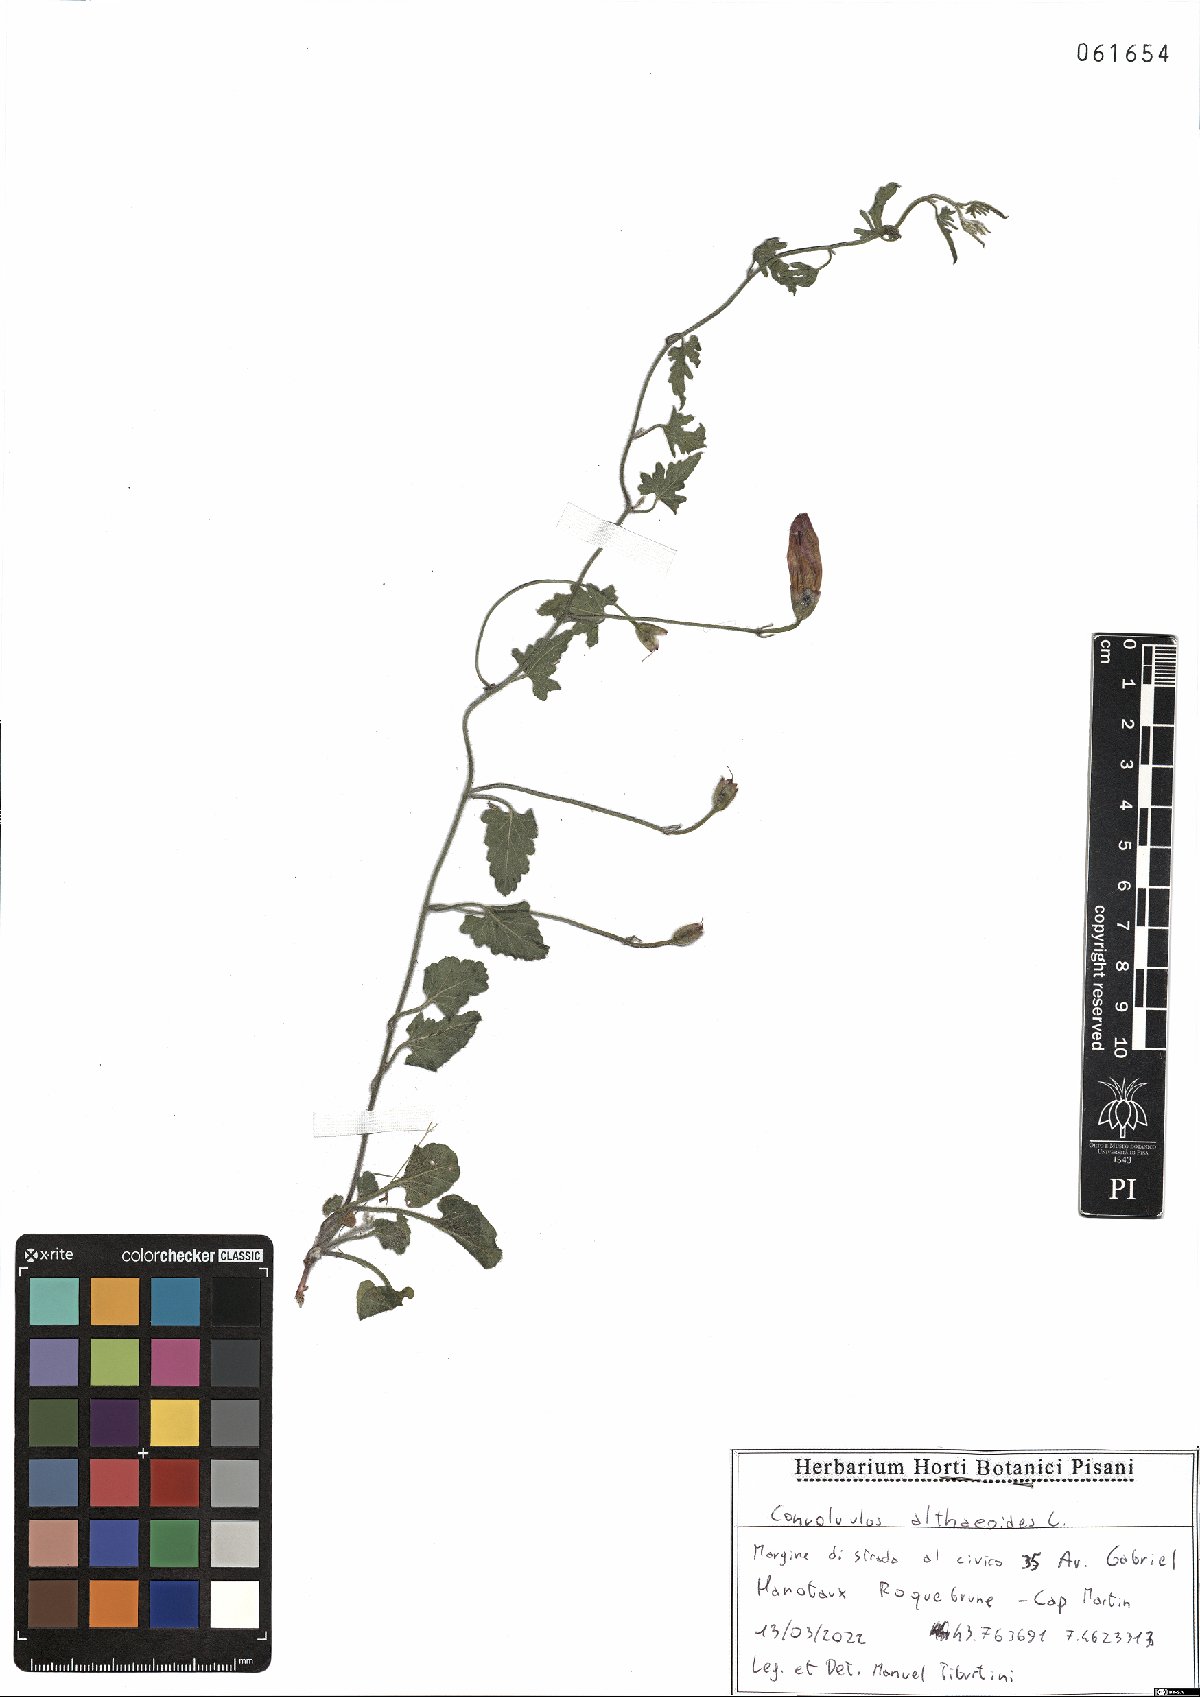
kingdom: Plantae
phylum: Tracheophyta
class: Magnoliopsida
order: Solanales
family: Convolvulaceae
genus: Convolvulus
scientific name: Convolvulus thunbergii
